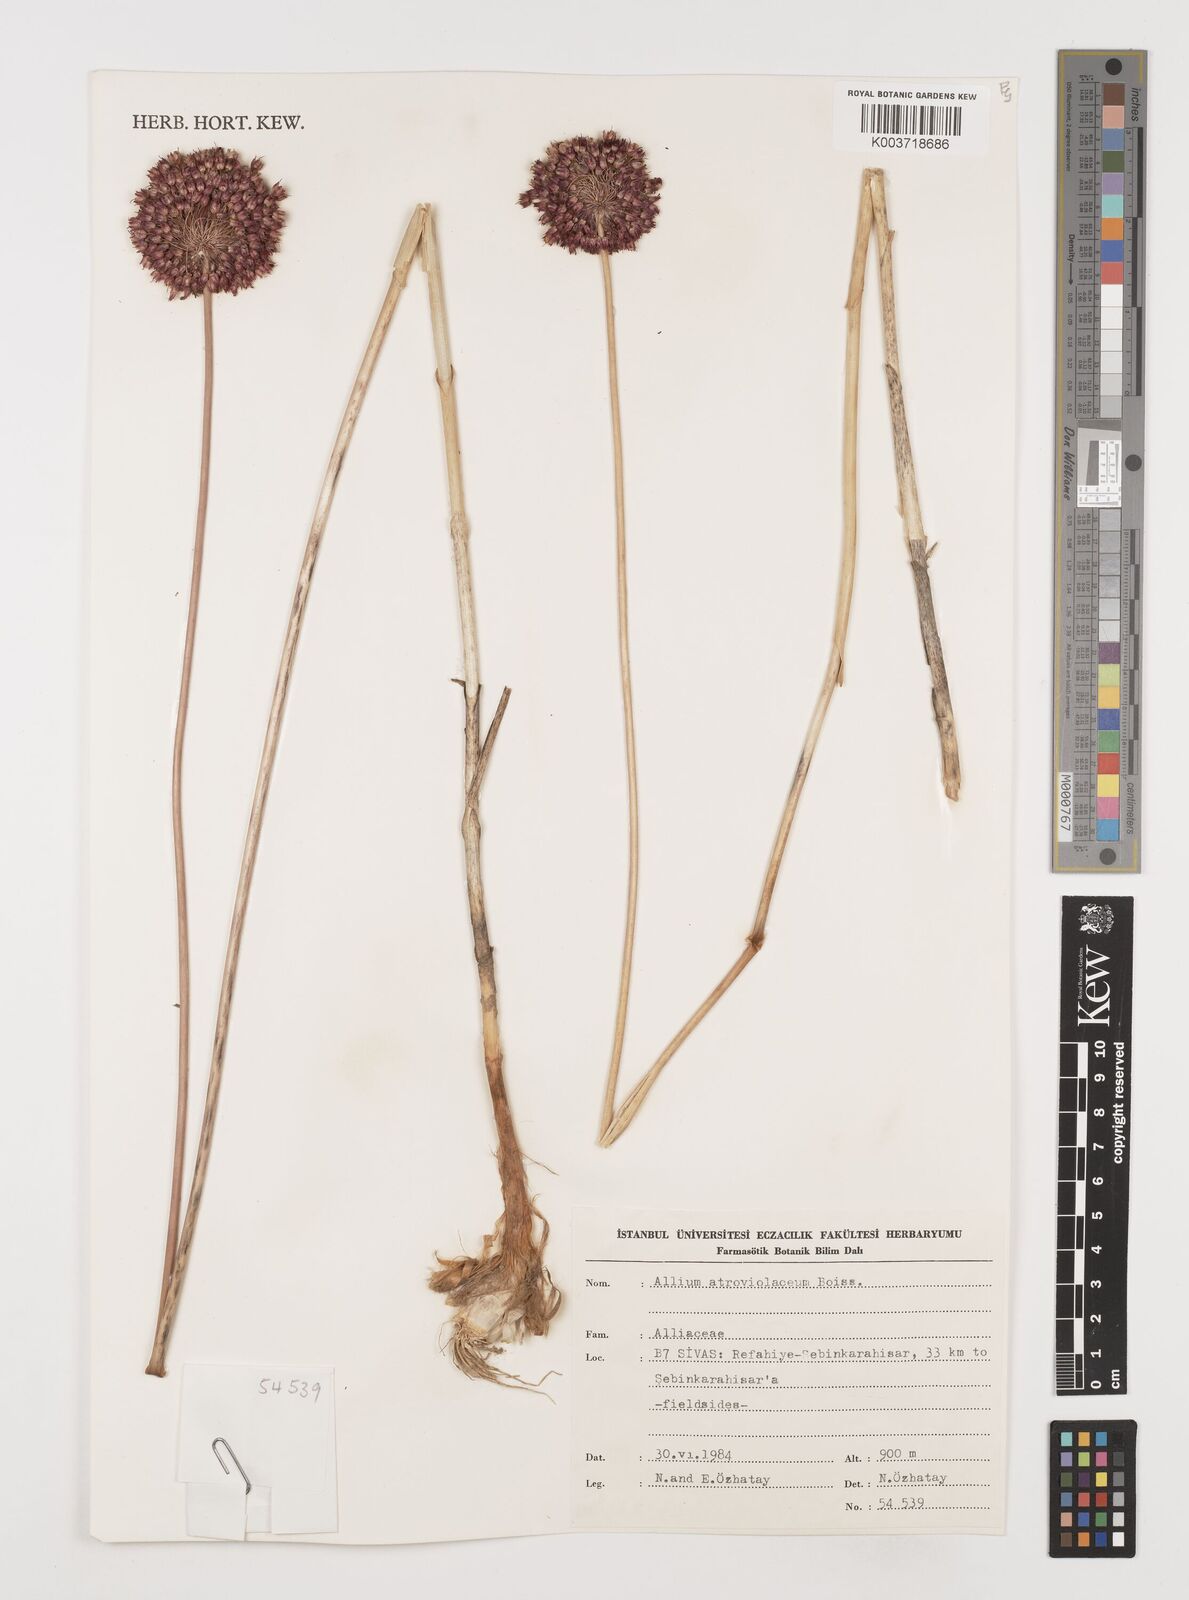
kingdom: Plantae
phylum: Tracheophyta
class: Liliopsida
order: Asparagales
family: Amaryllidaceae
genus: Allium
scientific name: Allium atroviolaceum
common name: Broadleaf wild leek
